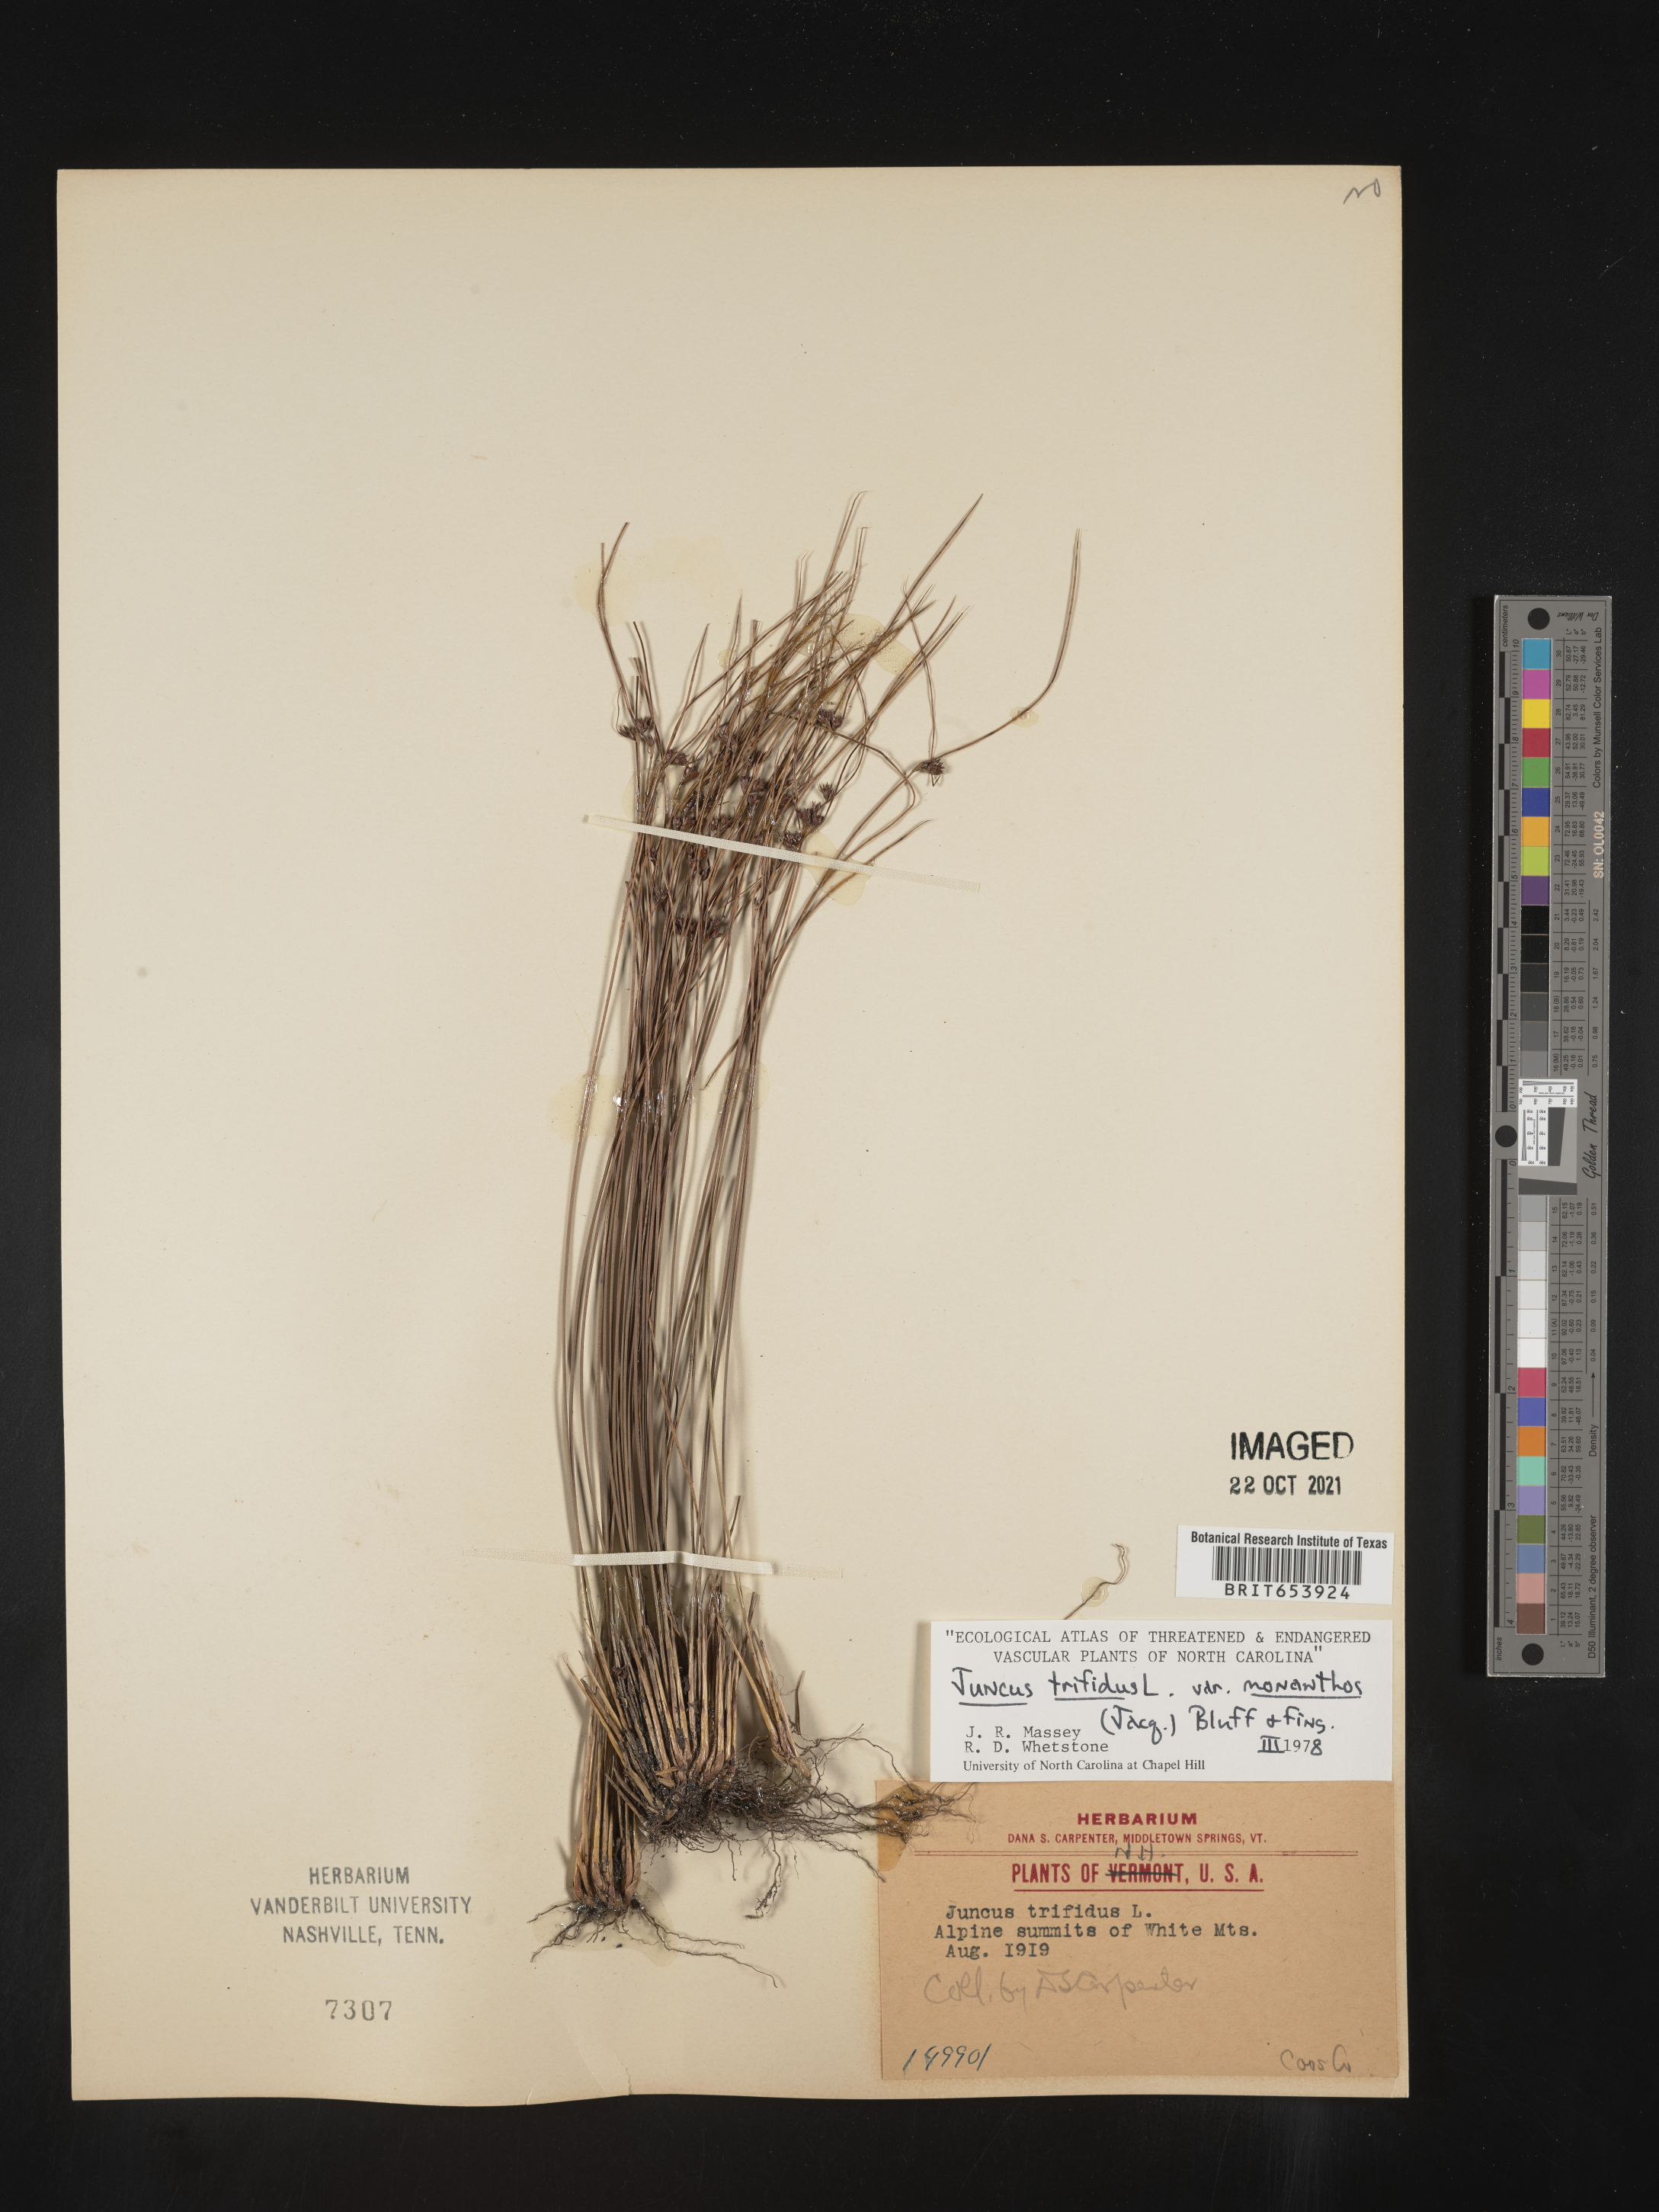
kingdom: Plantae
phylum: Tracheophyta
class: Liliopsida
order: Poales
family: Juncaceae
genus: Oreojuncus
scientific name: Oreojuncus trifidus
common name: Highland rush
